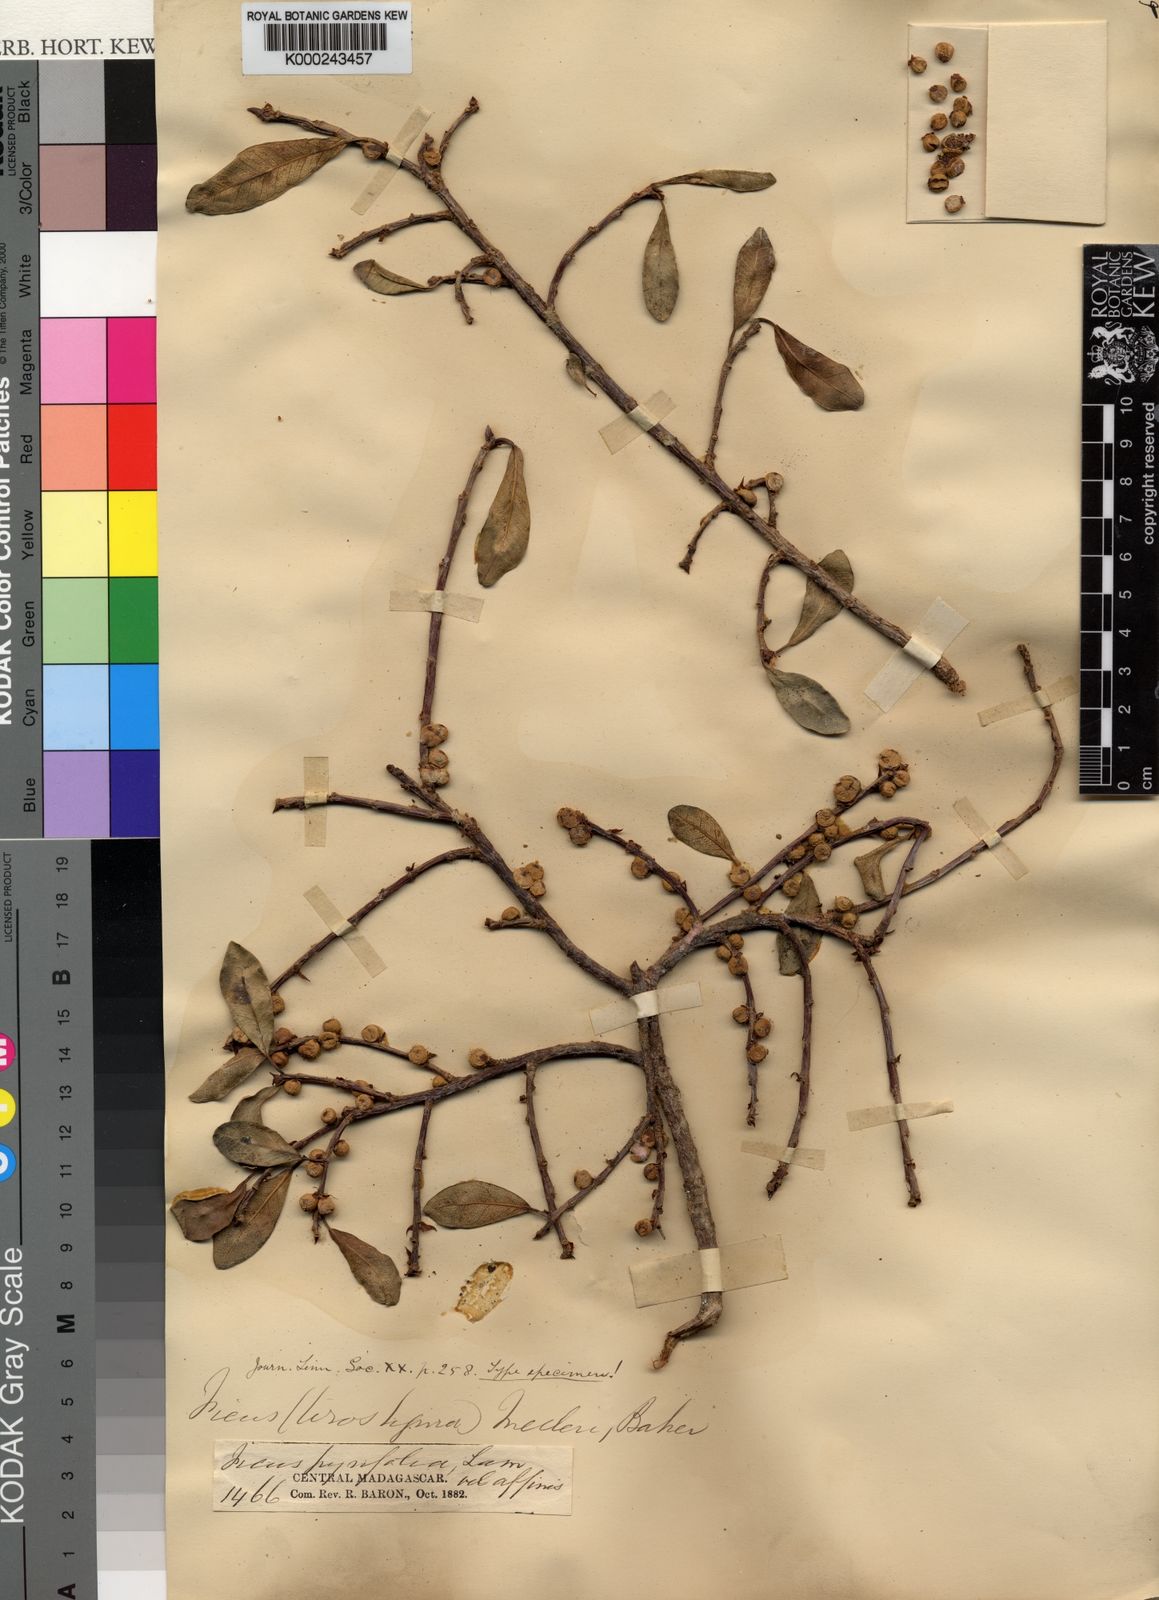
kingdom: Plantae
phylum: Tracheophyta
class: Magnoliopsida
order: Rosales
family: Moraceae
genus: Ficus
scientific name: Ficus reflexa
